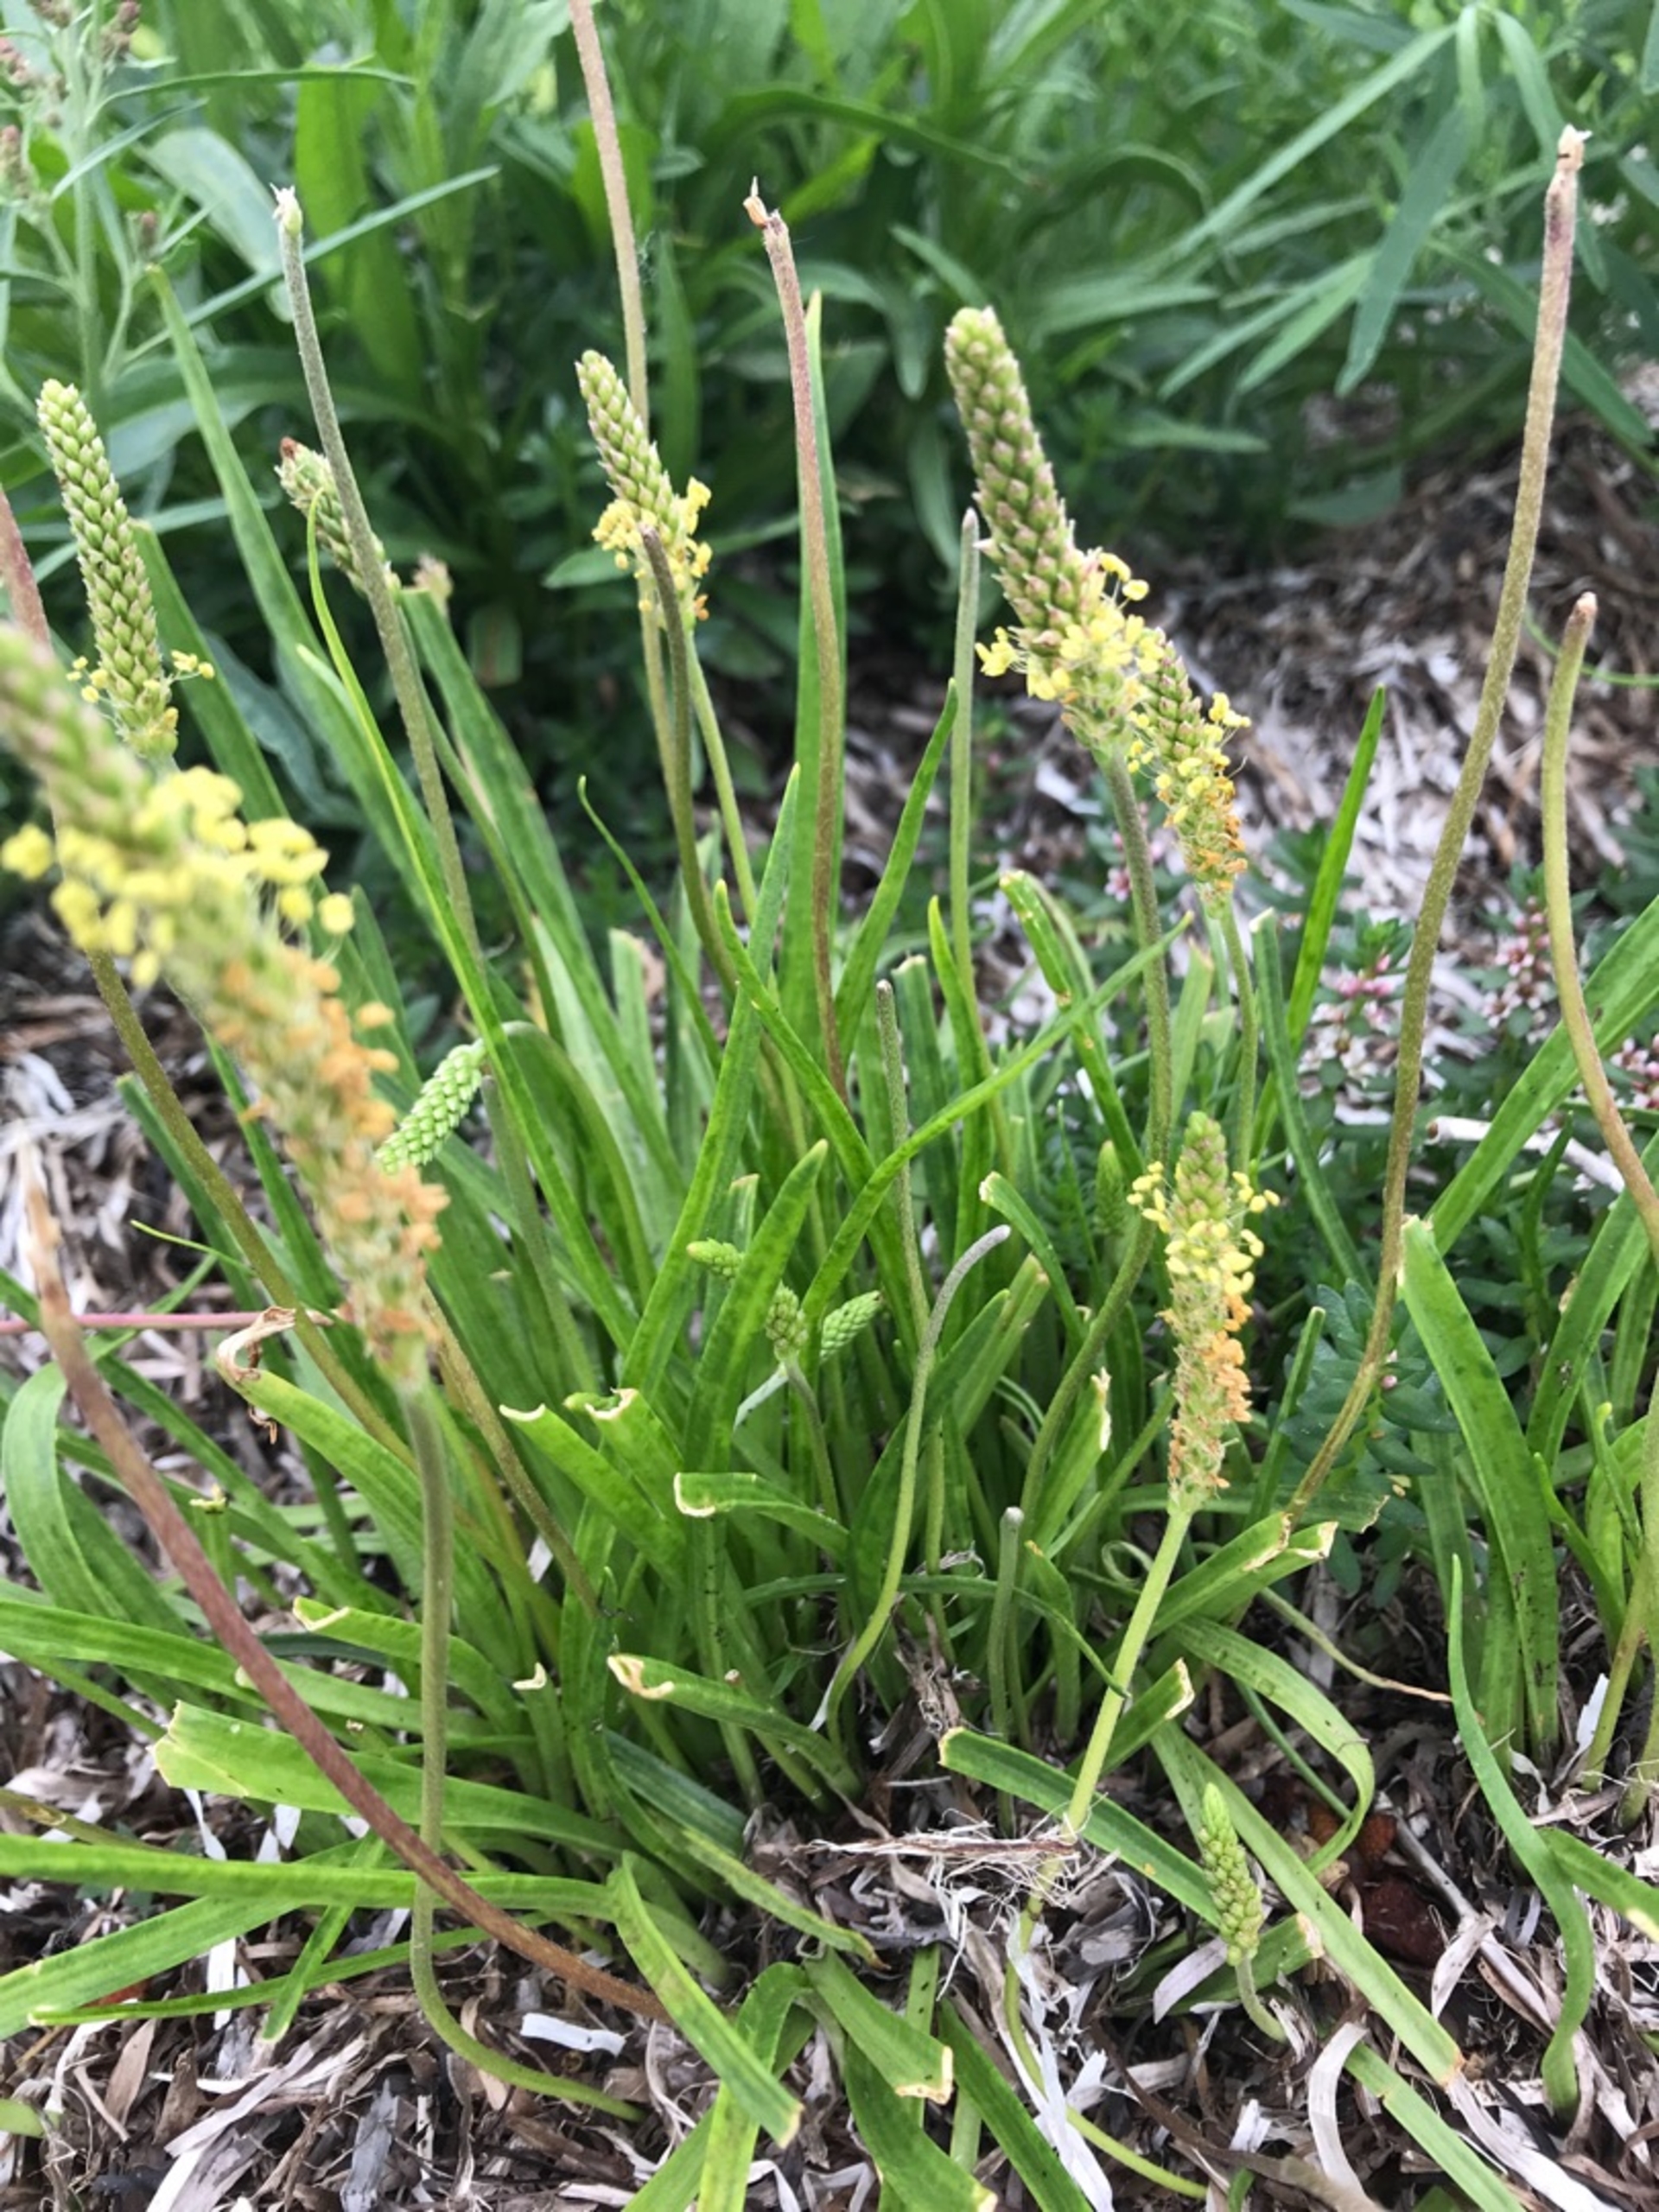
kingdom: Plantae
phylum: Tracheophyta
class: Magnoliopsida
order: Lamiales
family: Plantaginaceae
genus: Plantago
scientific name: Plantago maritima
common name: Strand-vejbred
